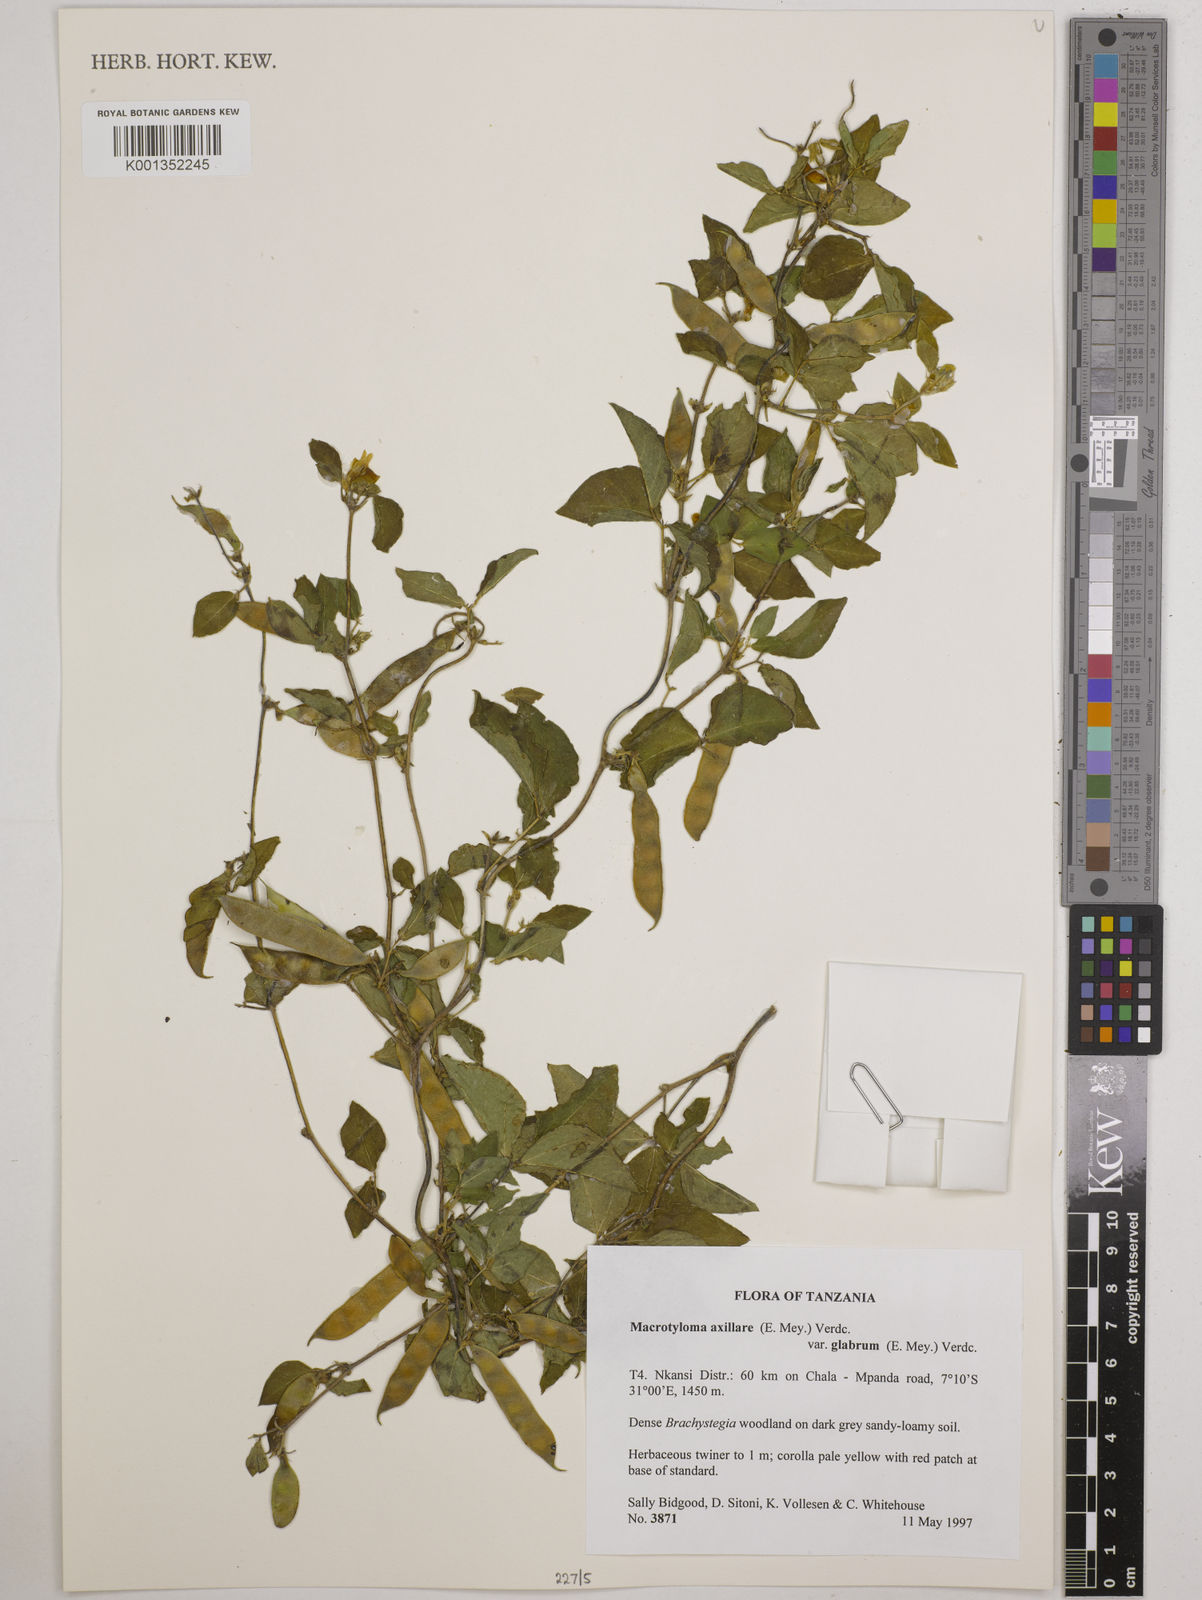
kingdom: Plantae
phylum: Tracheophyta
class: Magnoliopsida
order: Fabales
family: Fabaceae
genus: Macrotyloma
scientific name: Macrotyloma
